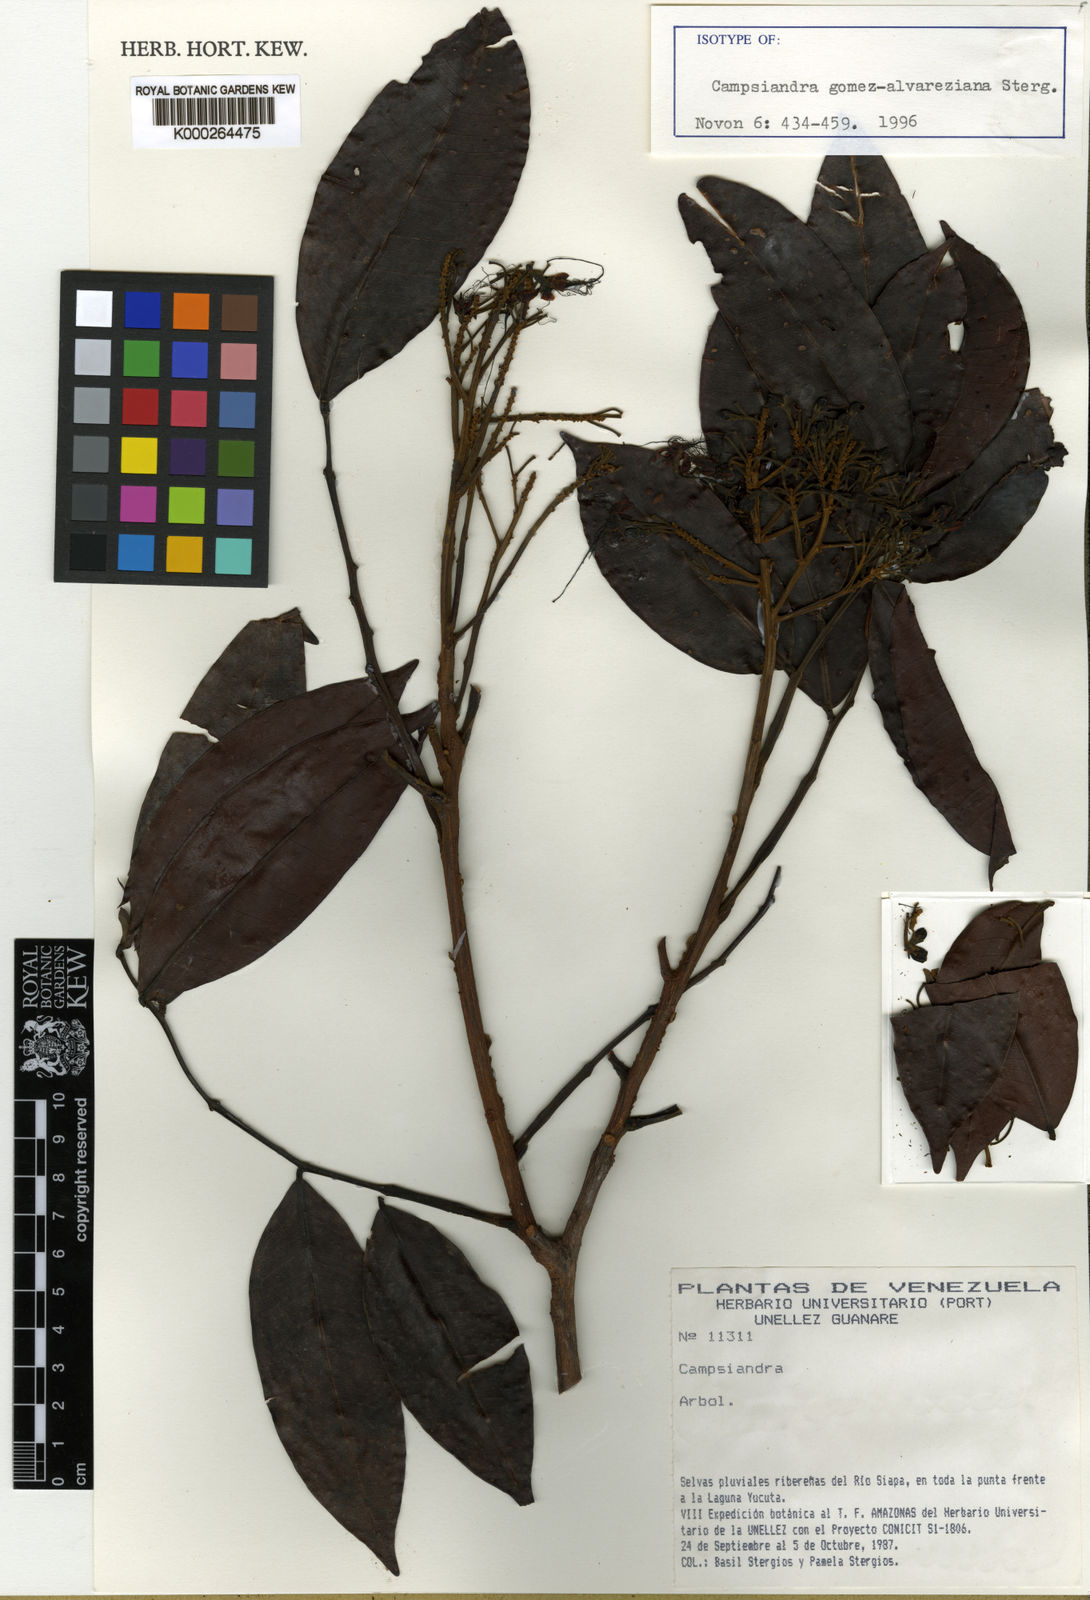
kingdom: Plantae
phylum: Tracheophyta
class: Magnoliopsida
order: Fabales
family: Fabaceae
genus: Campsiandra
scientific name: Campsiandra gomez-alvareziana
